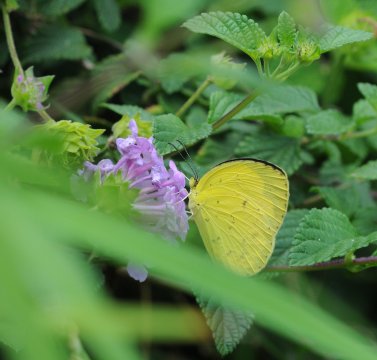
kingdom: Animalia
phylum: Arthropoda
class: Insecta
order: Lepidoptera
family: Pieridae
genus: Eurema
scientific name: Eurema hecabe
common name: Common Grass Yellow
